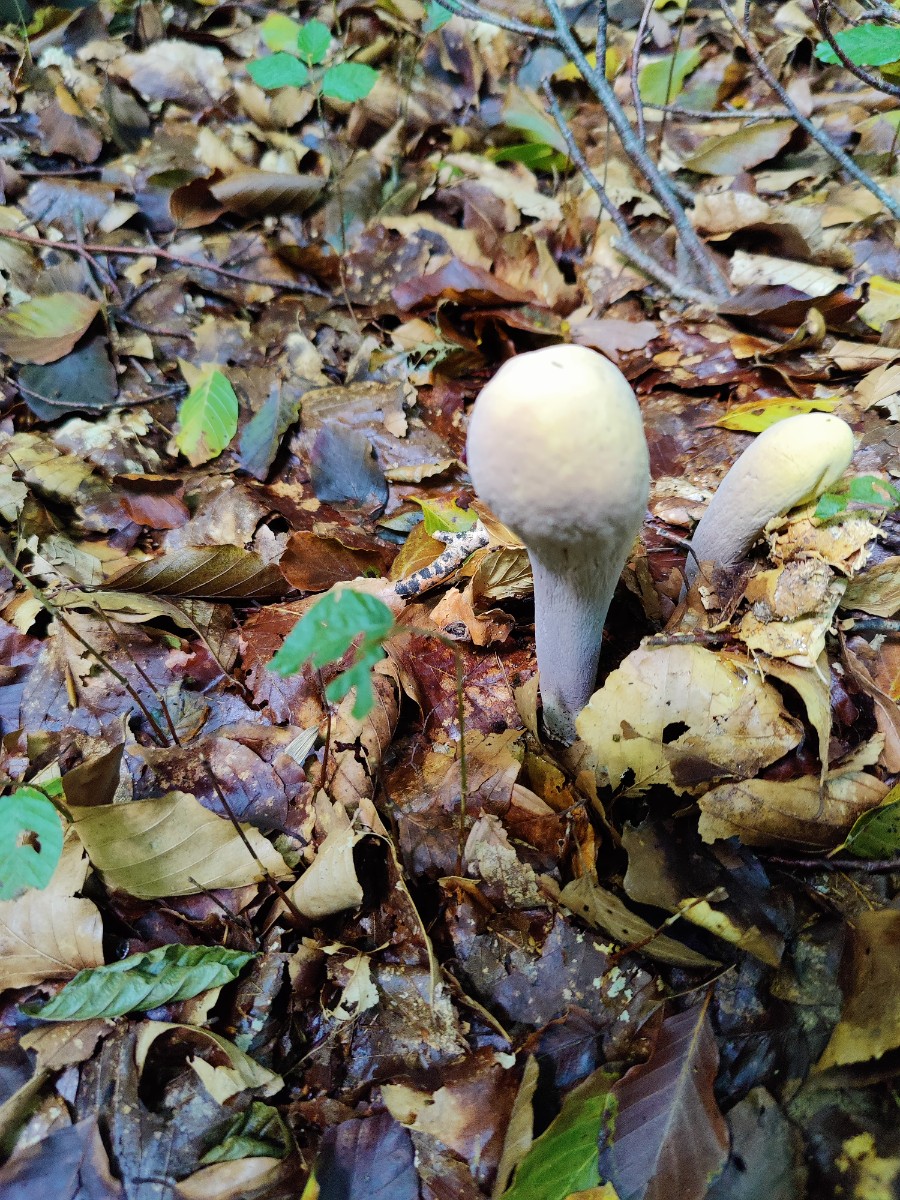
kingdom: Fungi
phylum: Basidiomycota
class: Agaricomycetes
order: Gomphales
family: Clavariadelphaceae
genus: Clavariadelphus
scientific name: Clavariadelphus pistillaris
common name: herkules-kæmpekølle
